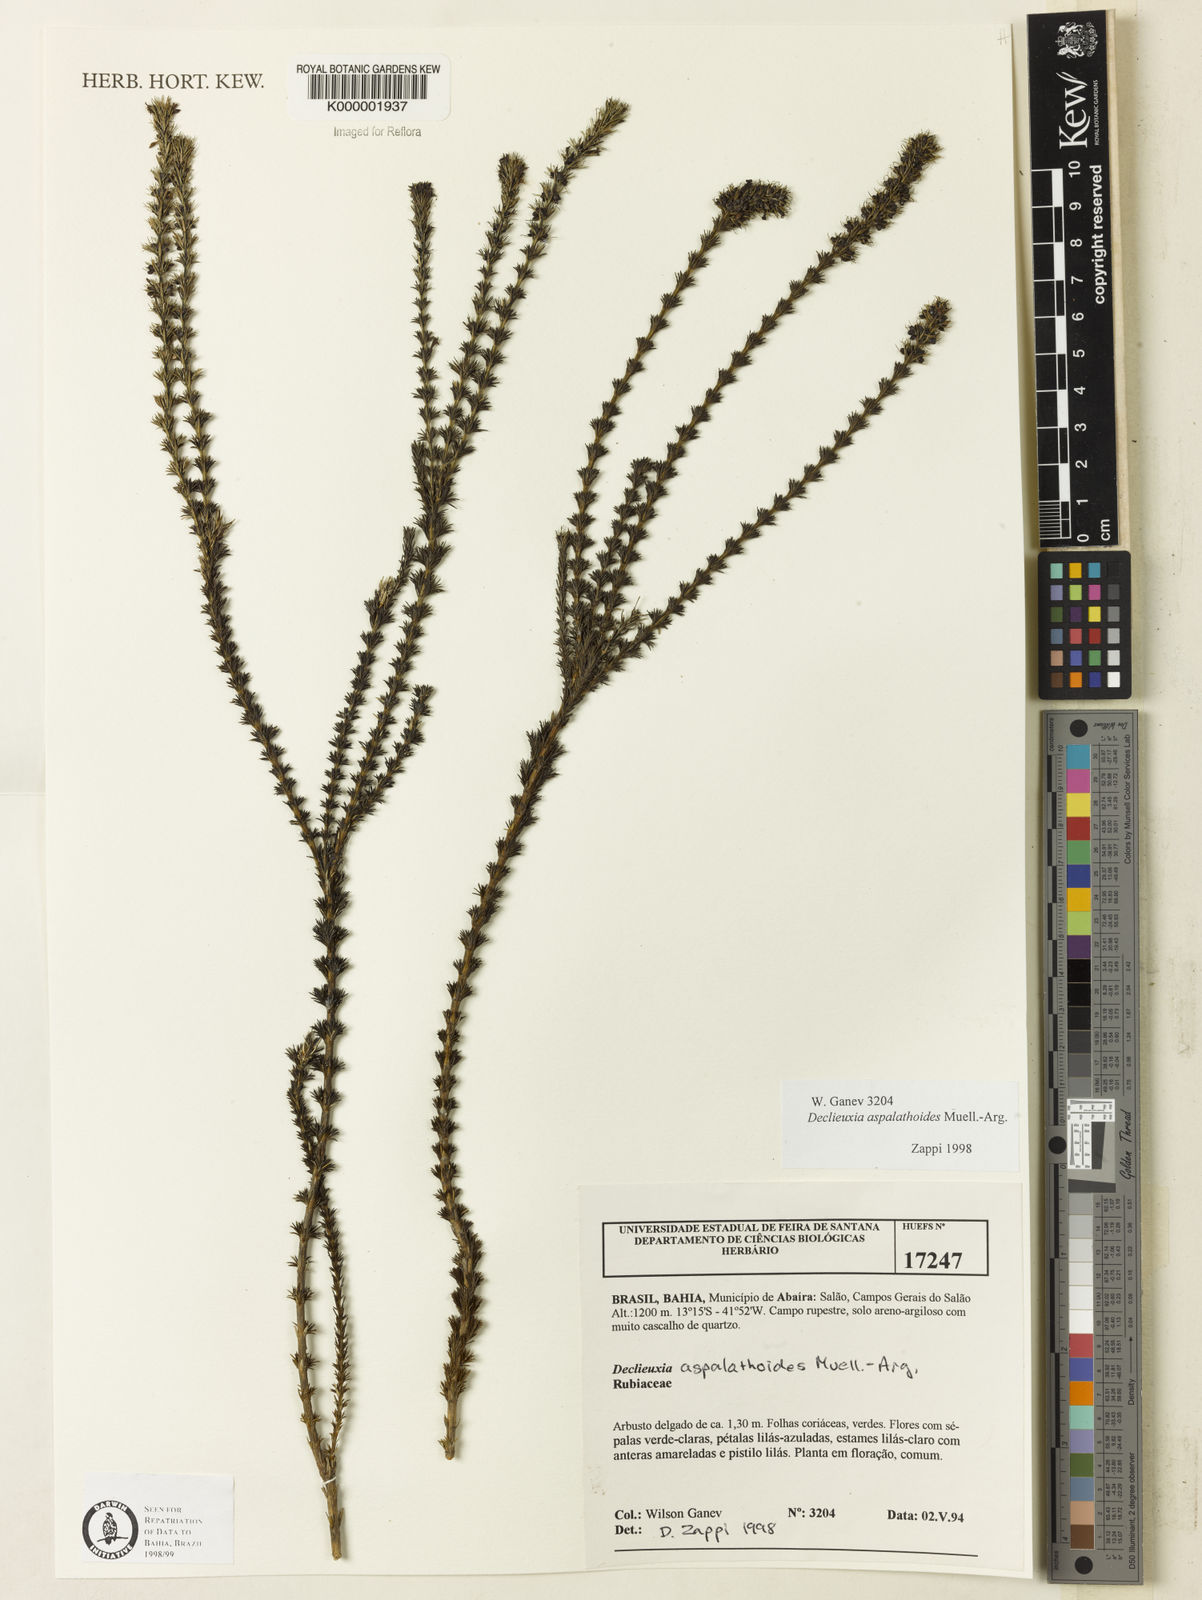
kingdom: Plantae
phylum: Tracheophyta
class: Magnoliopsida
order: Gentianales
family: Rubiaceae
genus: Declieuxia
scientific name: Declieuxia aspalathoides
